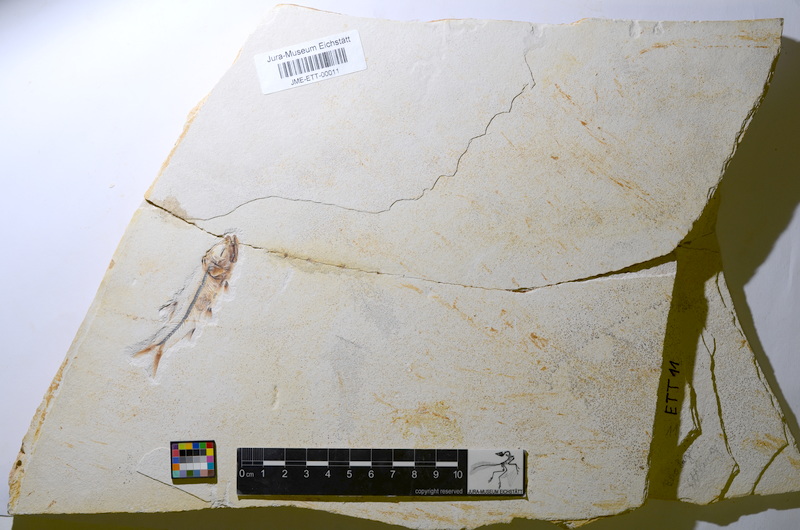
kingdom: Animalia
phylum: Chordata
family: Ascalaboidae
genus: Ebertichthys
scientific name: Ebertichthys ettlingensis
